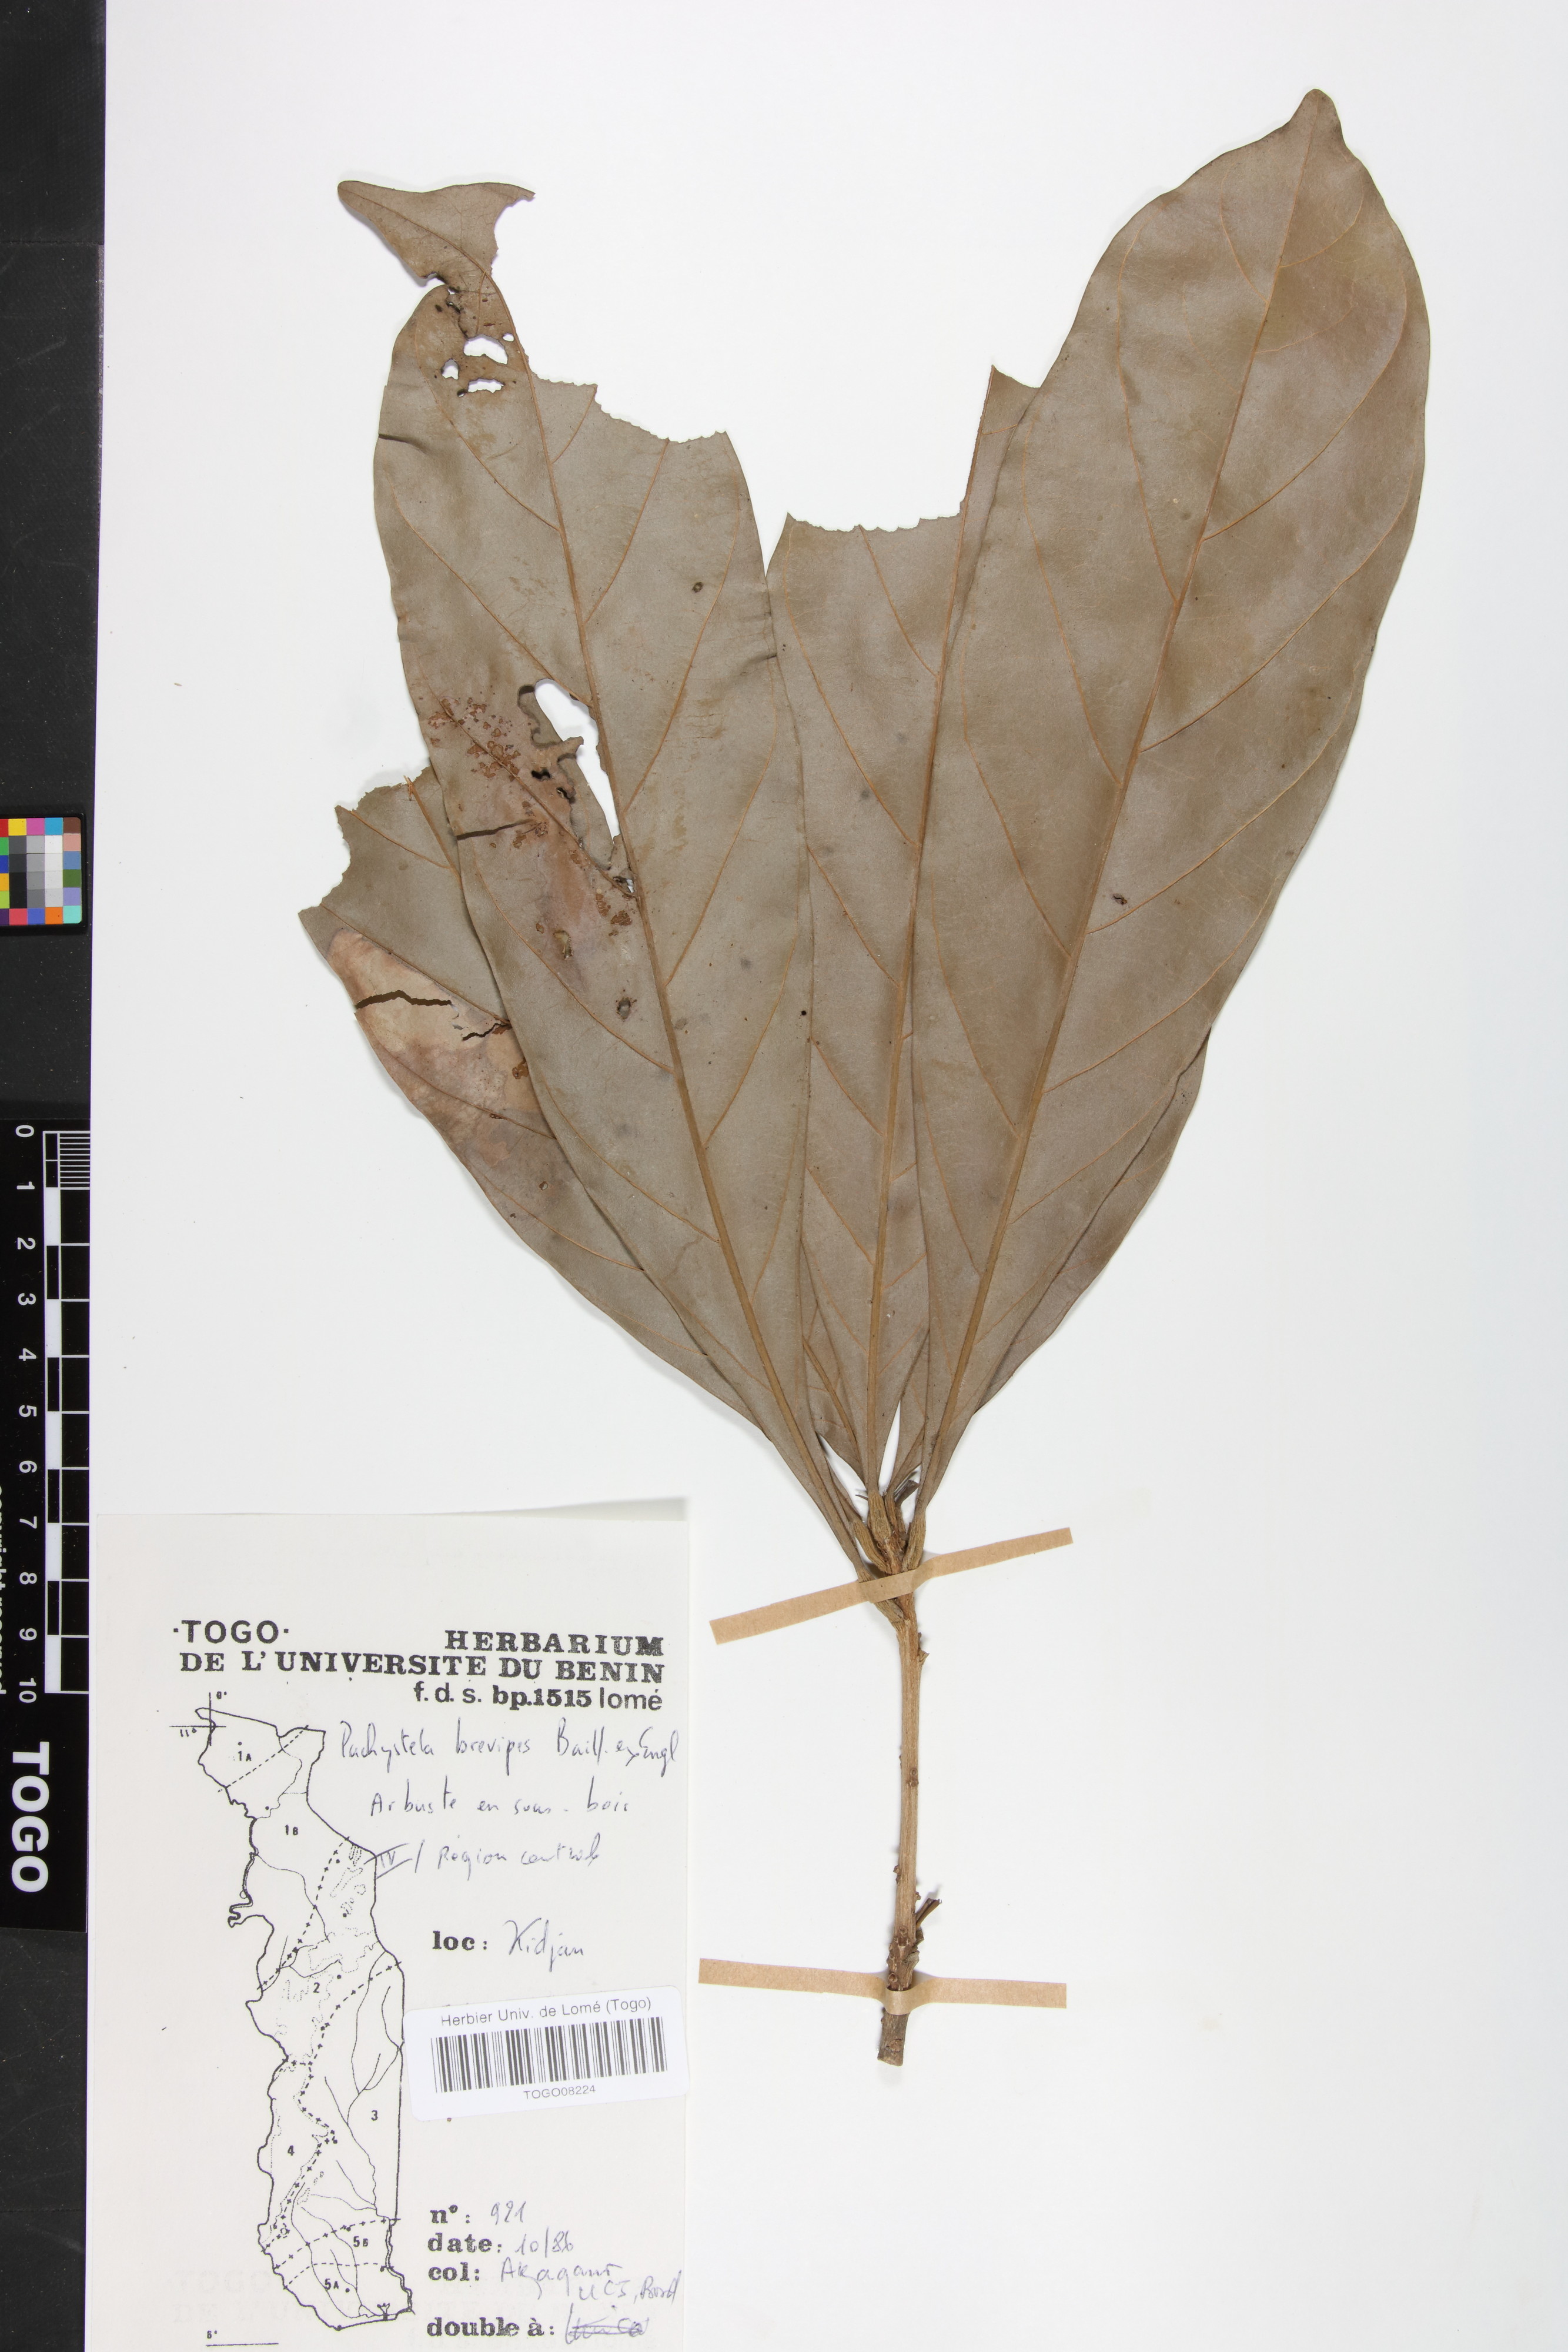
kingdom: Plantae
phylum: Tracheophyta
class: Magnoliopsida
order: Ericales
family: Sapotaceae
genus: Synsepalum
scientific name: Synsepalum brevipes
